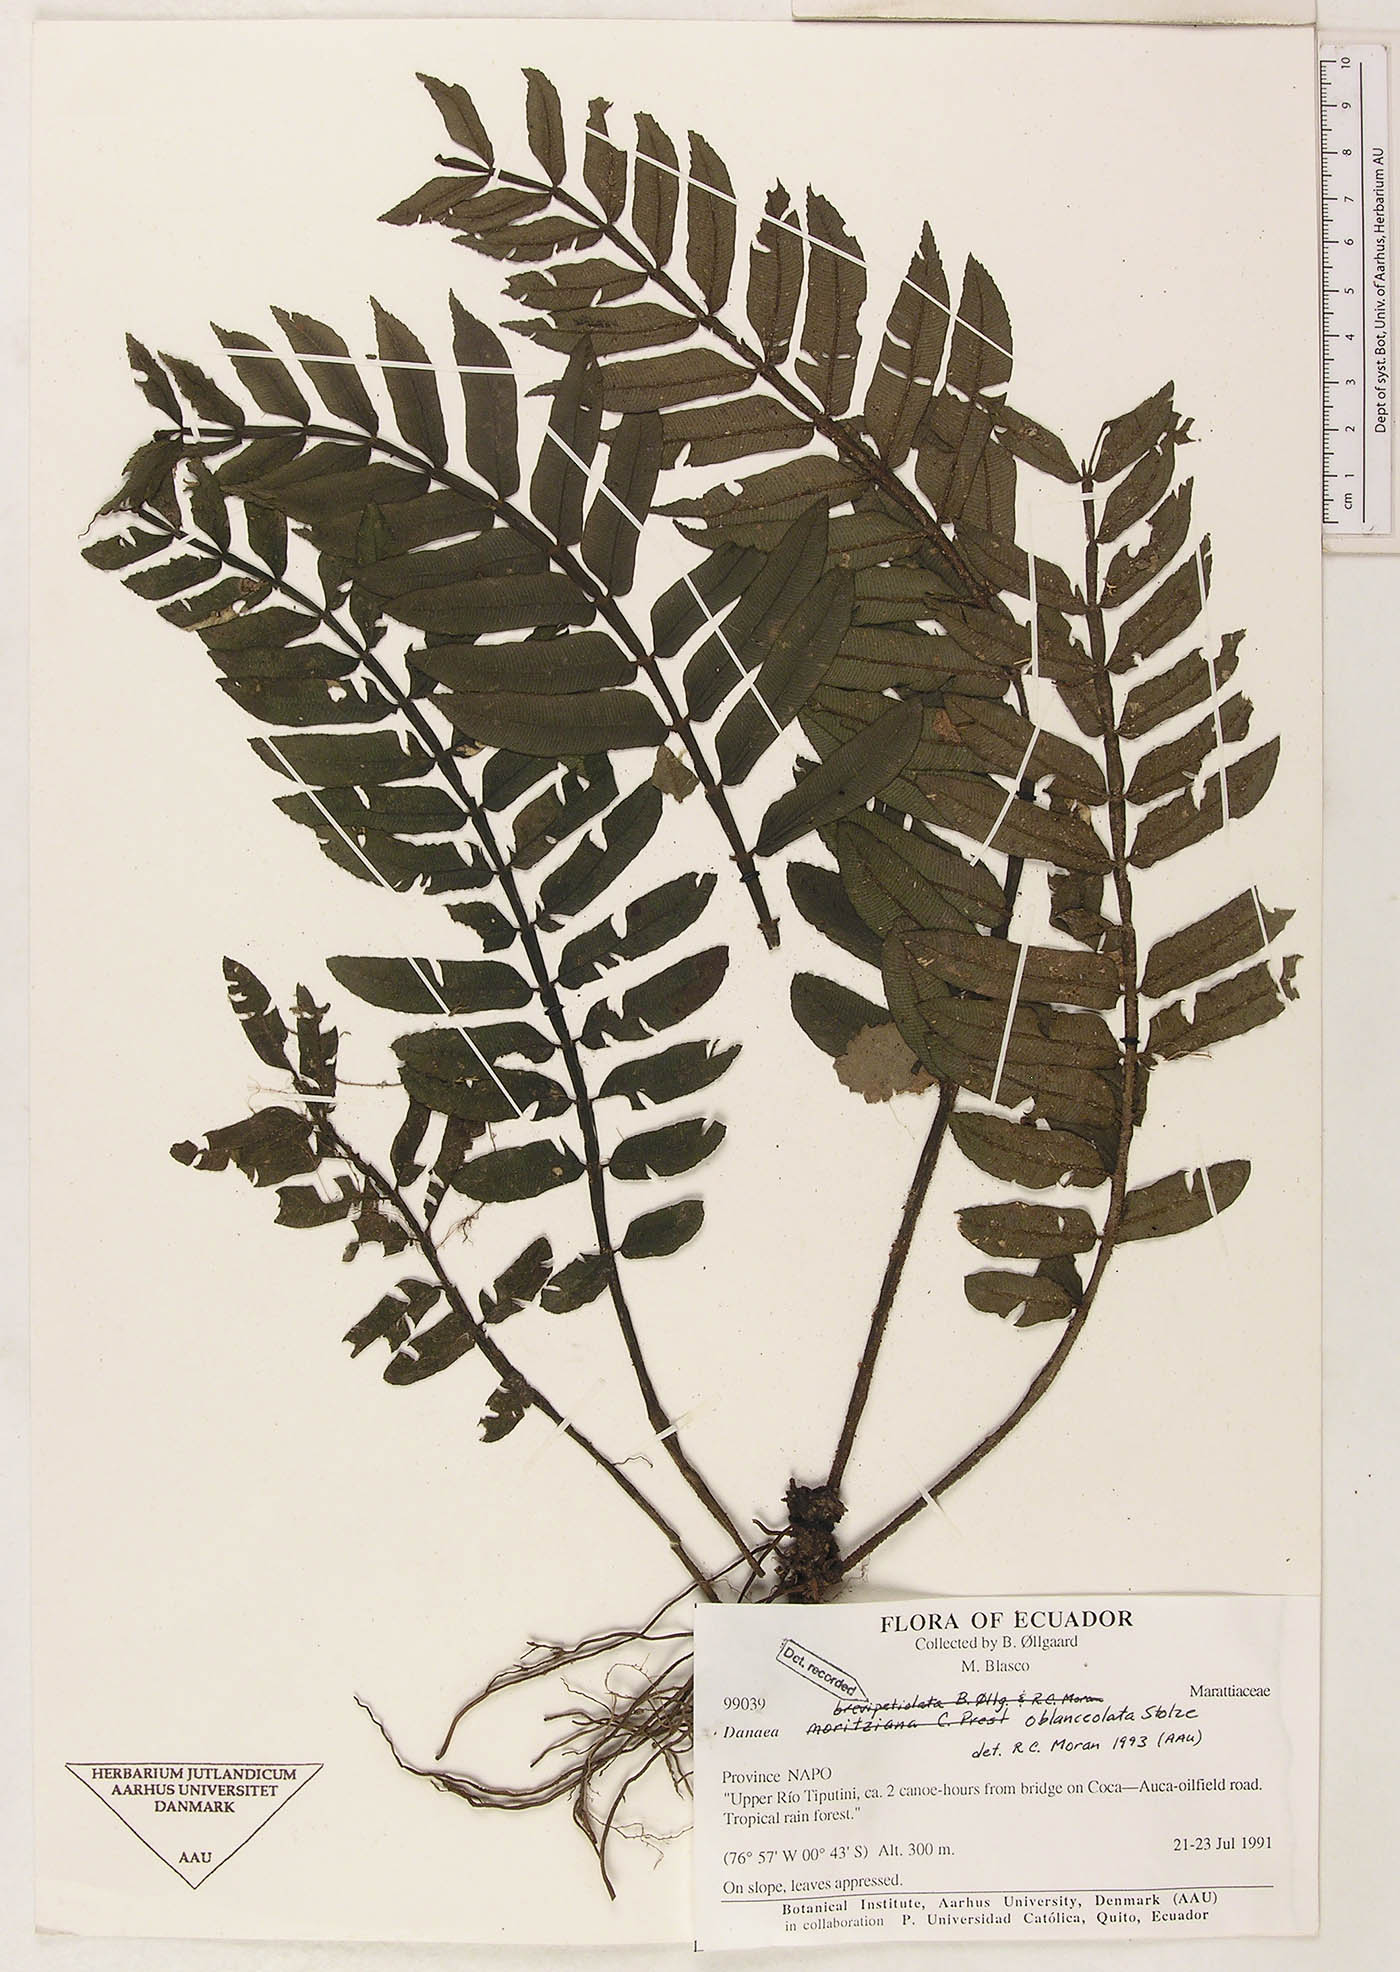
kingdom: Plantae
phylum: Tracheophyta
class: Polypodiopsida
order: Marattiales
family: Marattiaceae
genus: Danaea
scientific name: Danaea oblanceolata
